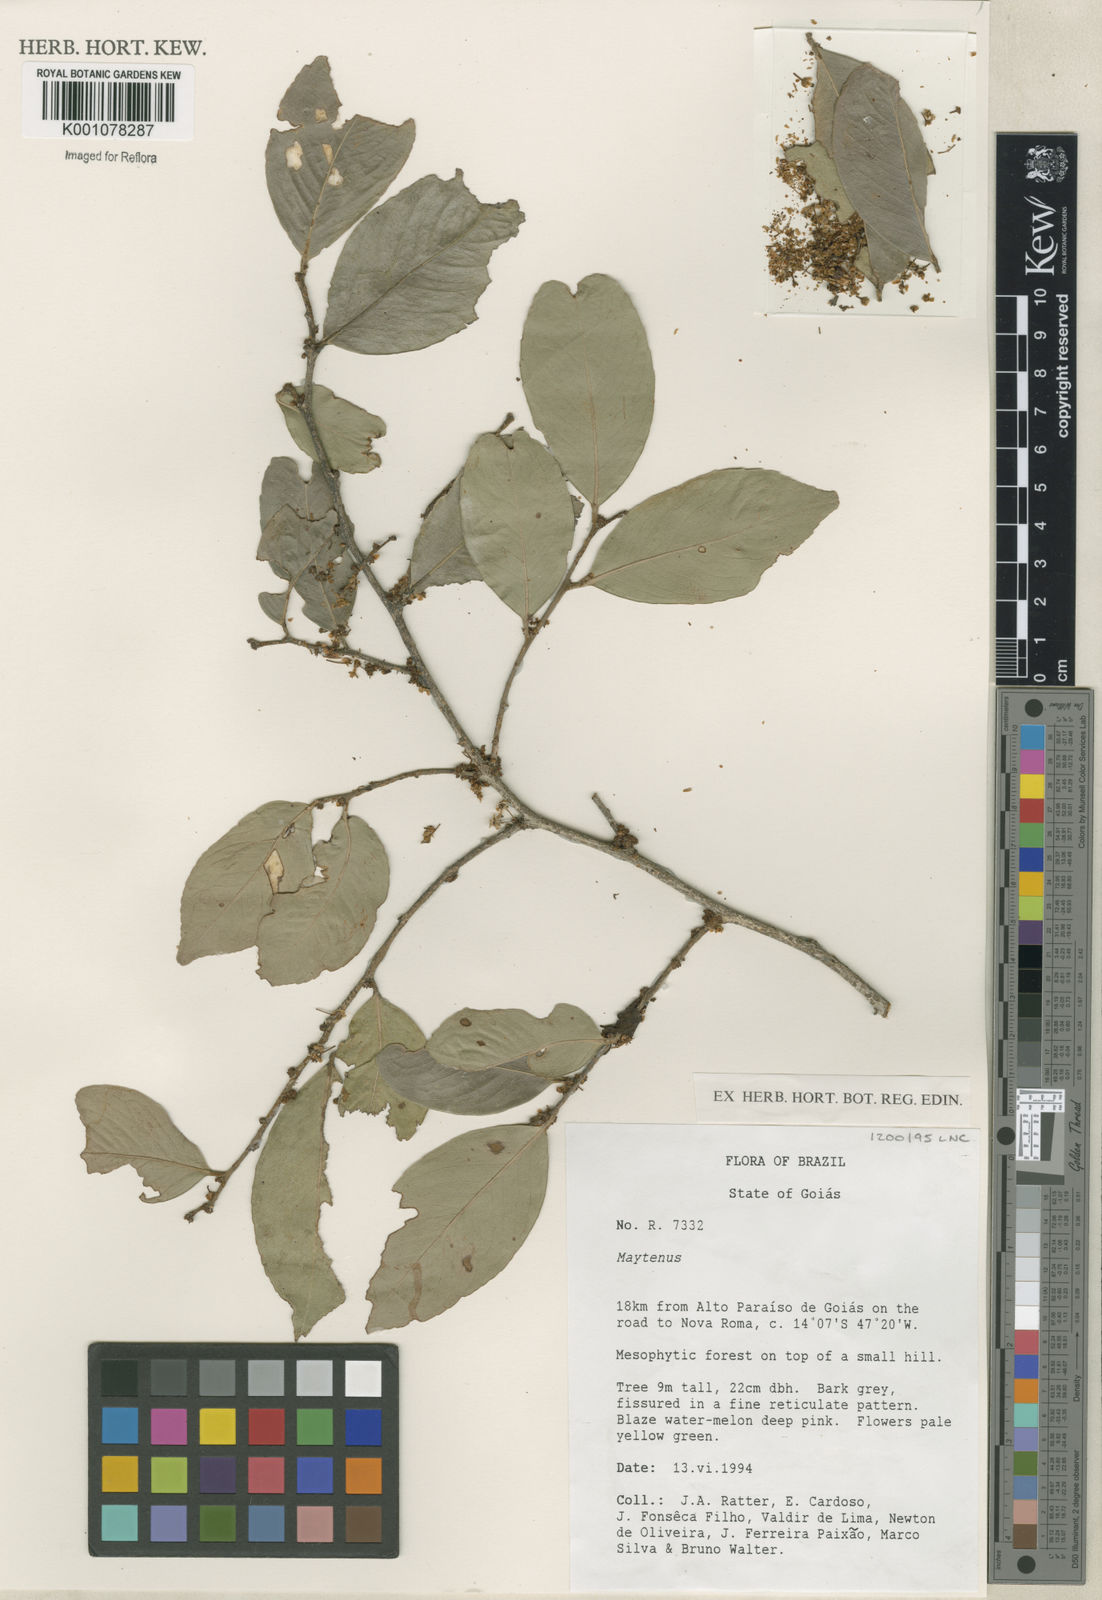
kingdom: Plantae
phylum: Tracheophyta
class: Magnoliopsida
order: Celastrales
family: Celastraceae
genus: Maytenus
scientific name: Maytenus
